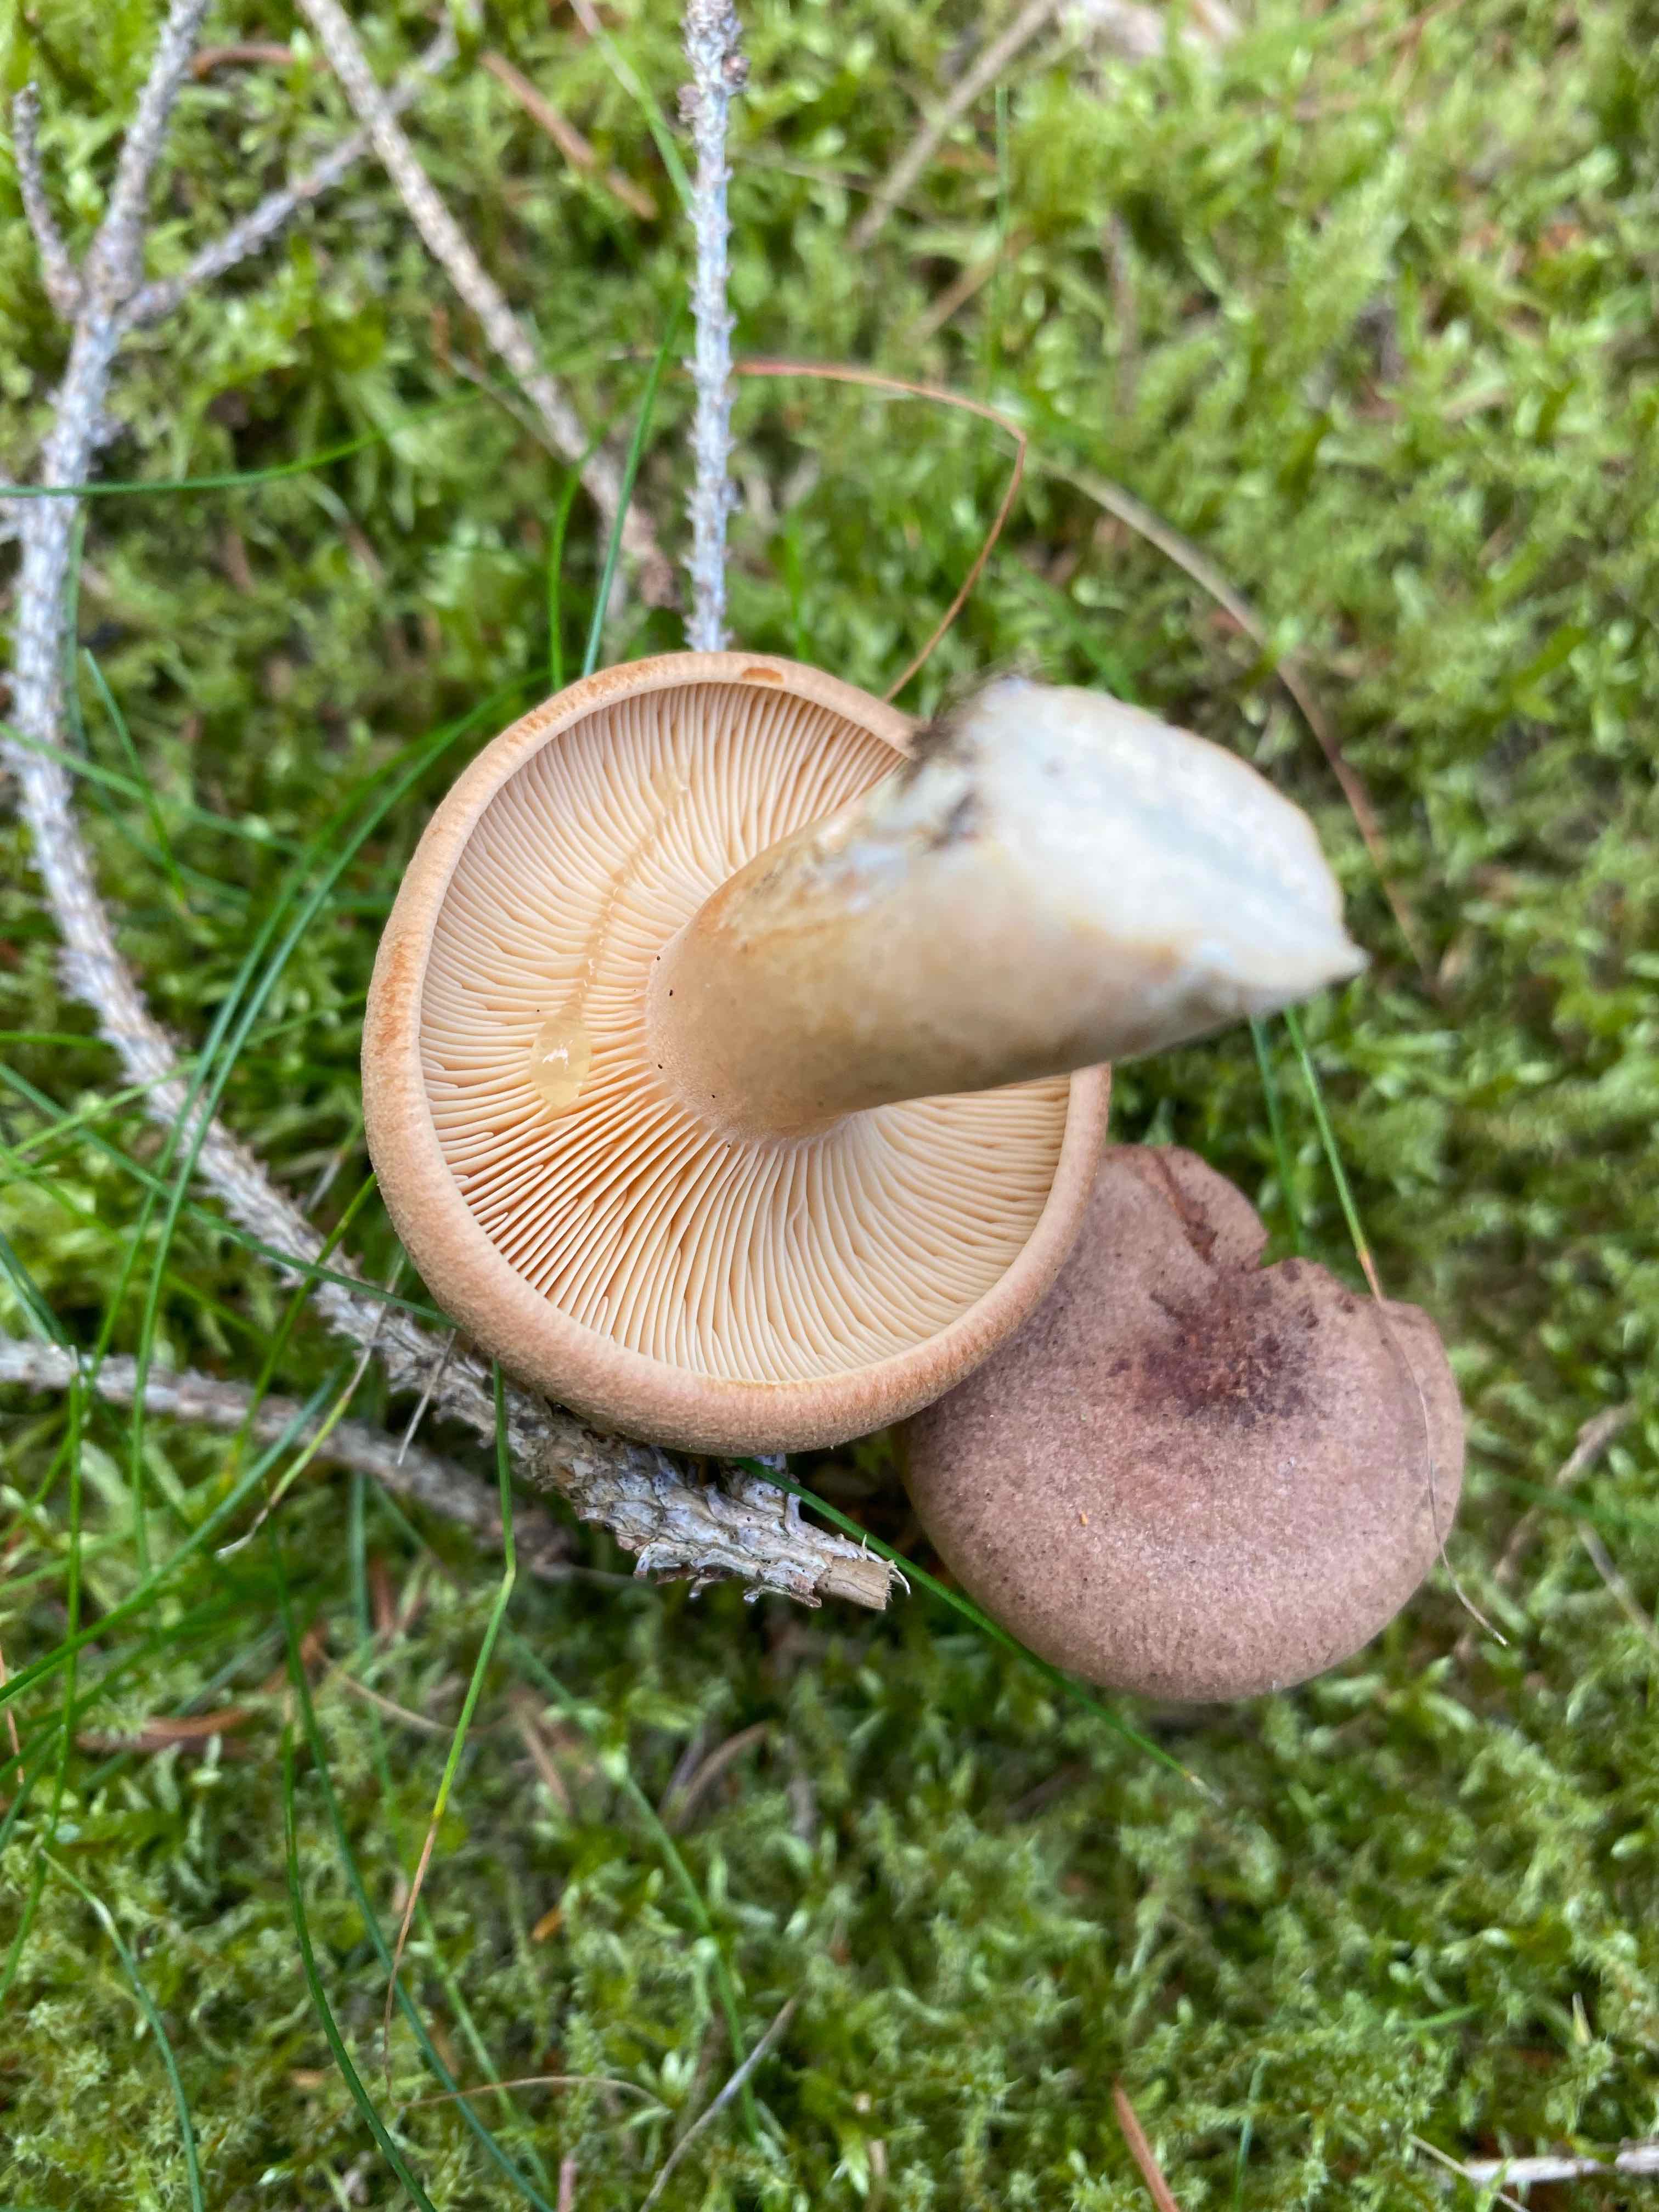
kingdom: Fungi
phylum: Basidiomycota
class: Agaricomycetes
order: Russulales
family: Russulaceae
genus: Lactarius
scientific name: Lactarius helvus
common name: mose-mælkehat
